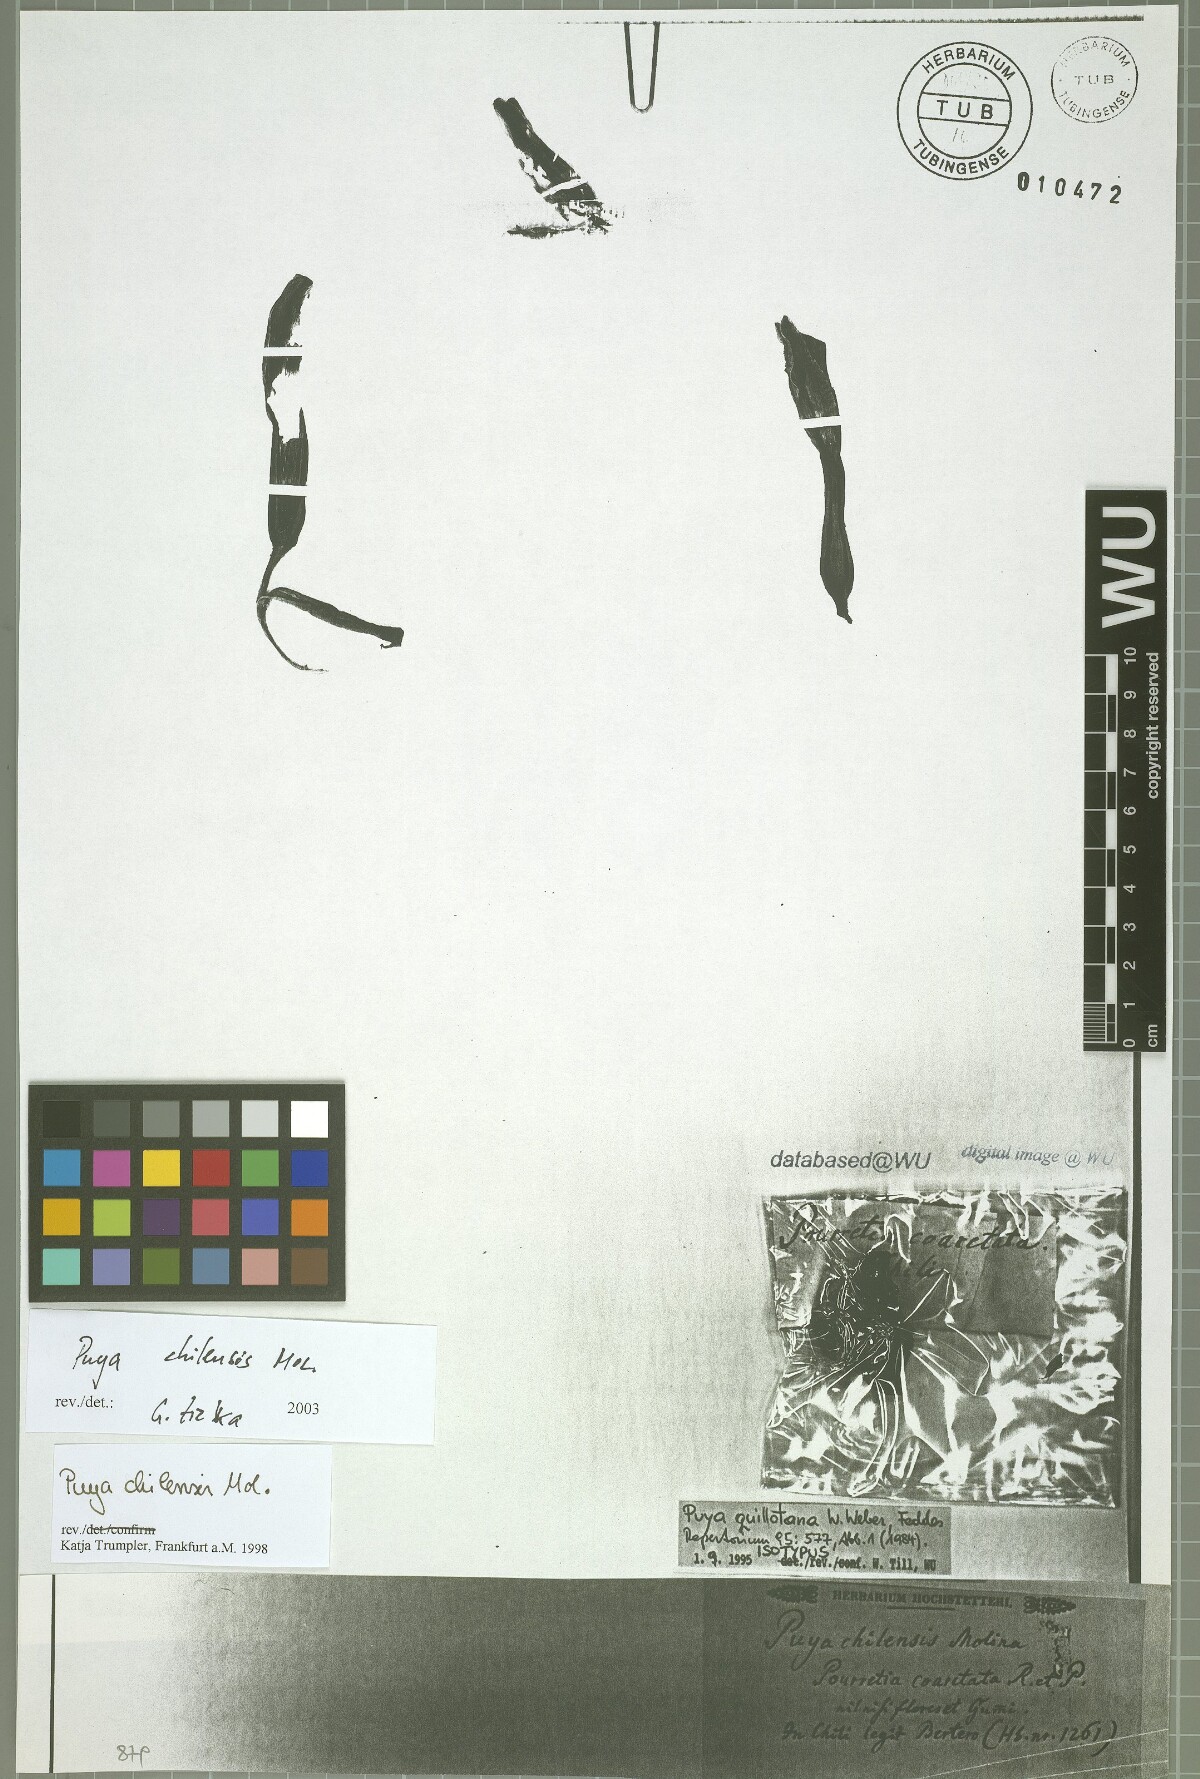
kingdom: Plantae
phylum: Tracheophyta
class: Liliopsida
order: Poales
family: Bromeliaceae
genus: Puya
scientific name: Puya chilensis
